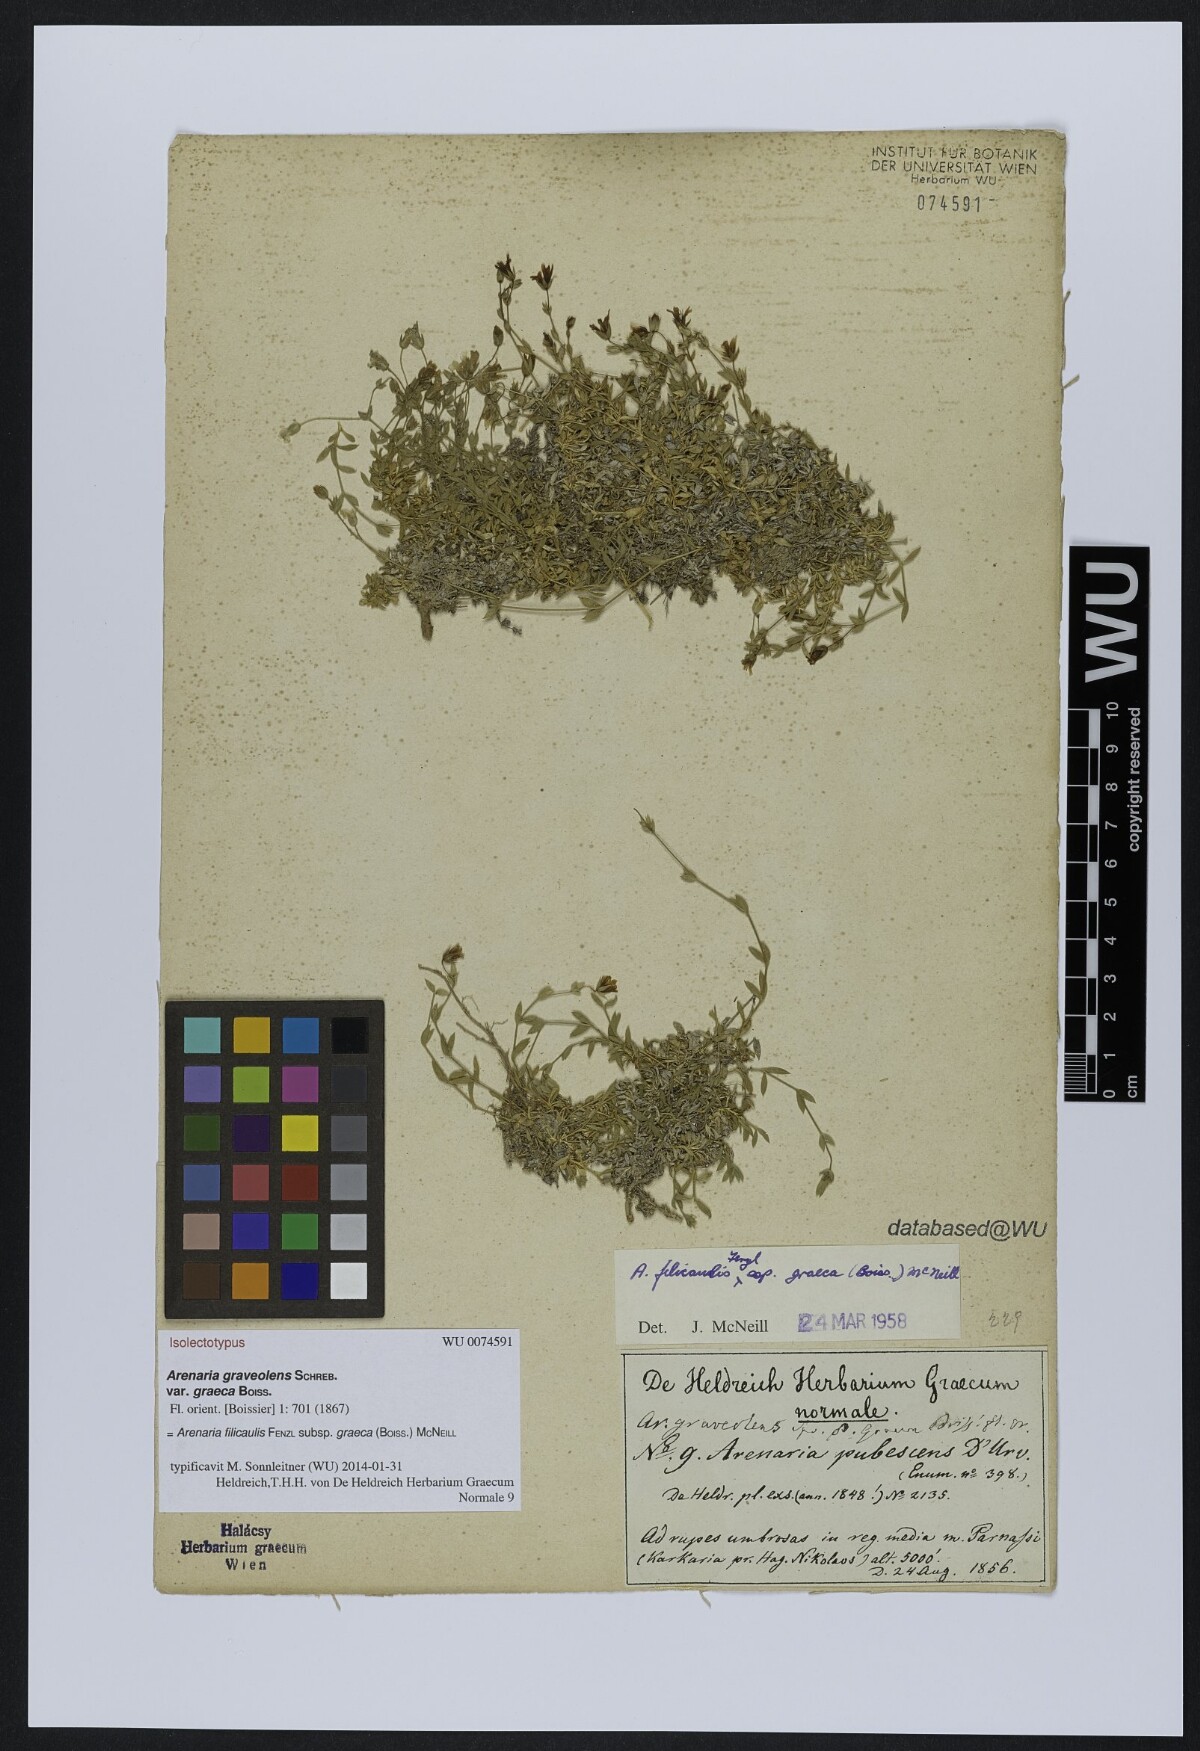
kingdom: Plantae
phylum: Tracheophyta
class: Magnoliopsida
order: Caryophyllales
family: Caryophyllaceae
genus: Arenaria
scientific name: Arenaria filicaulis
